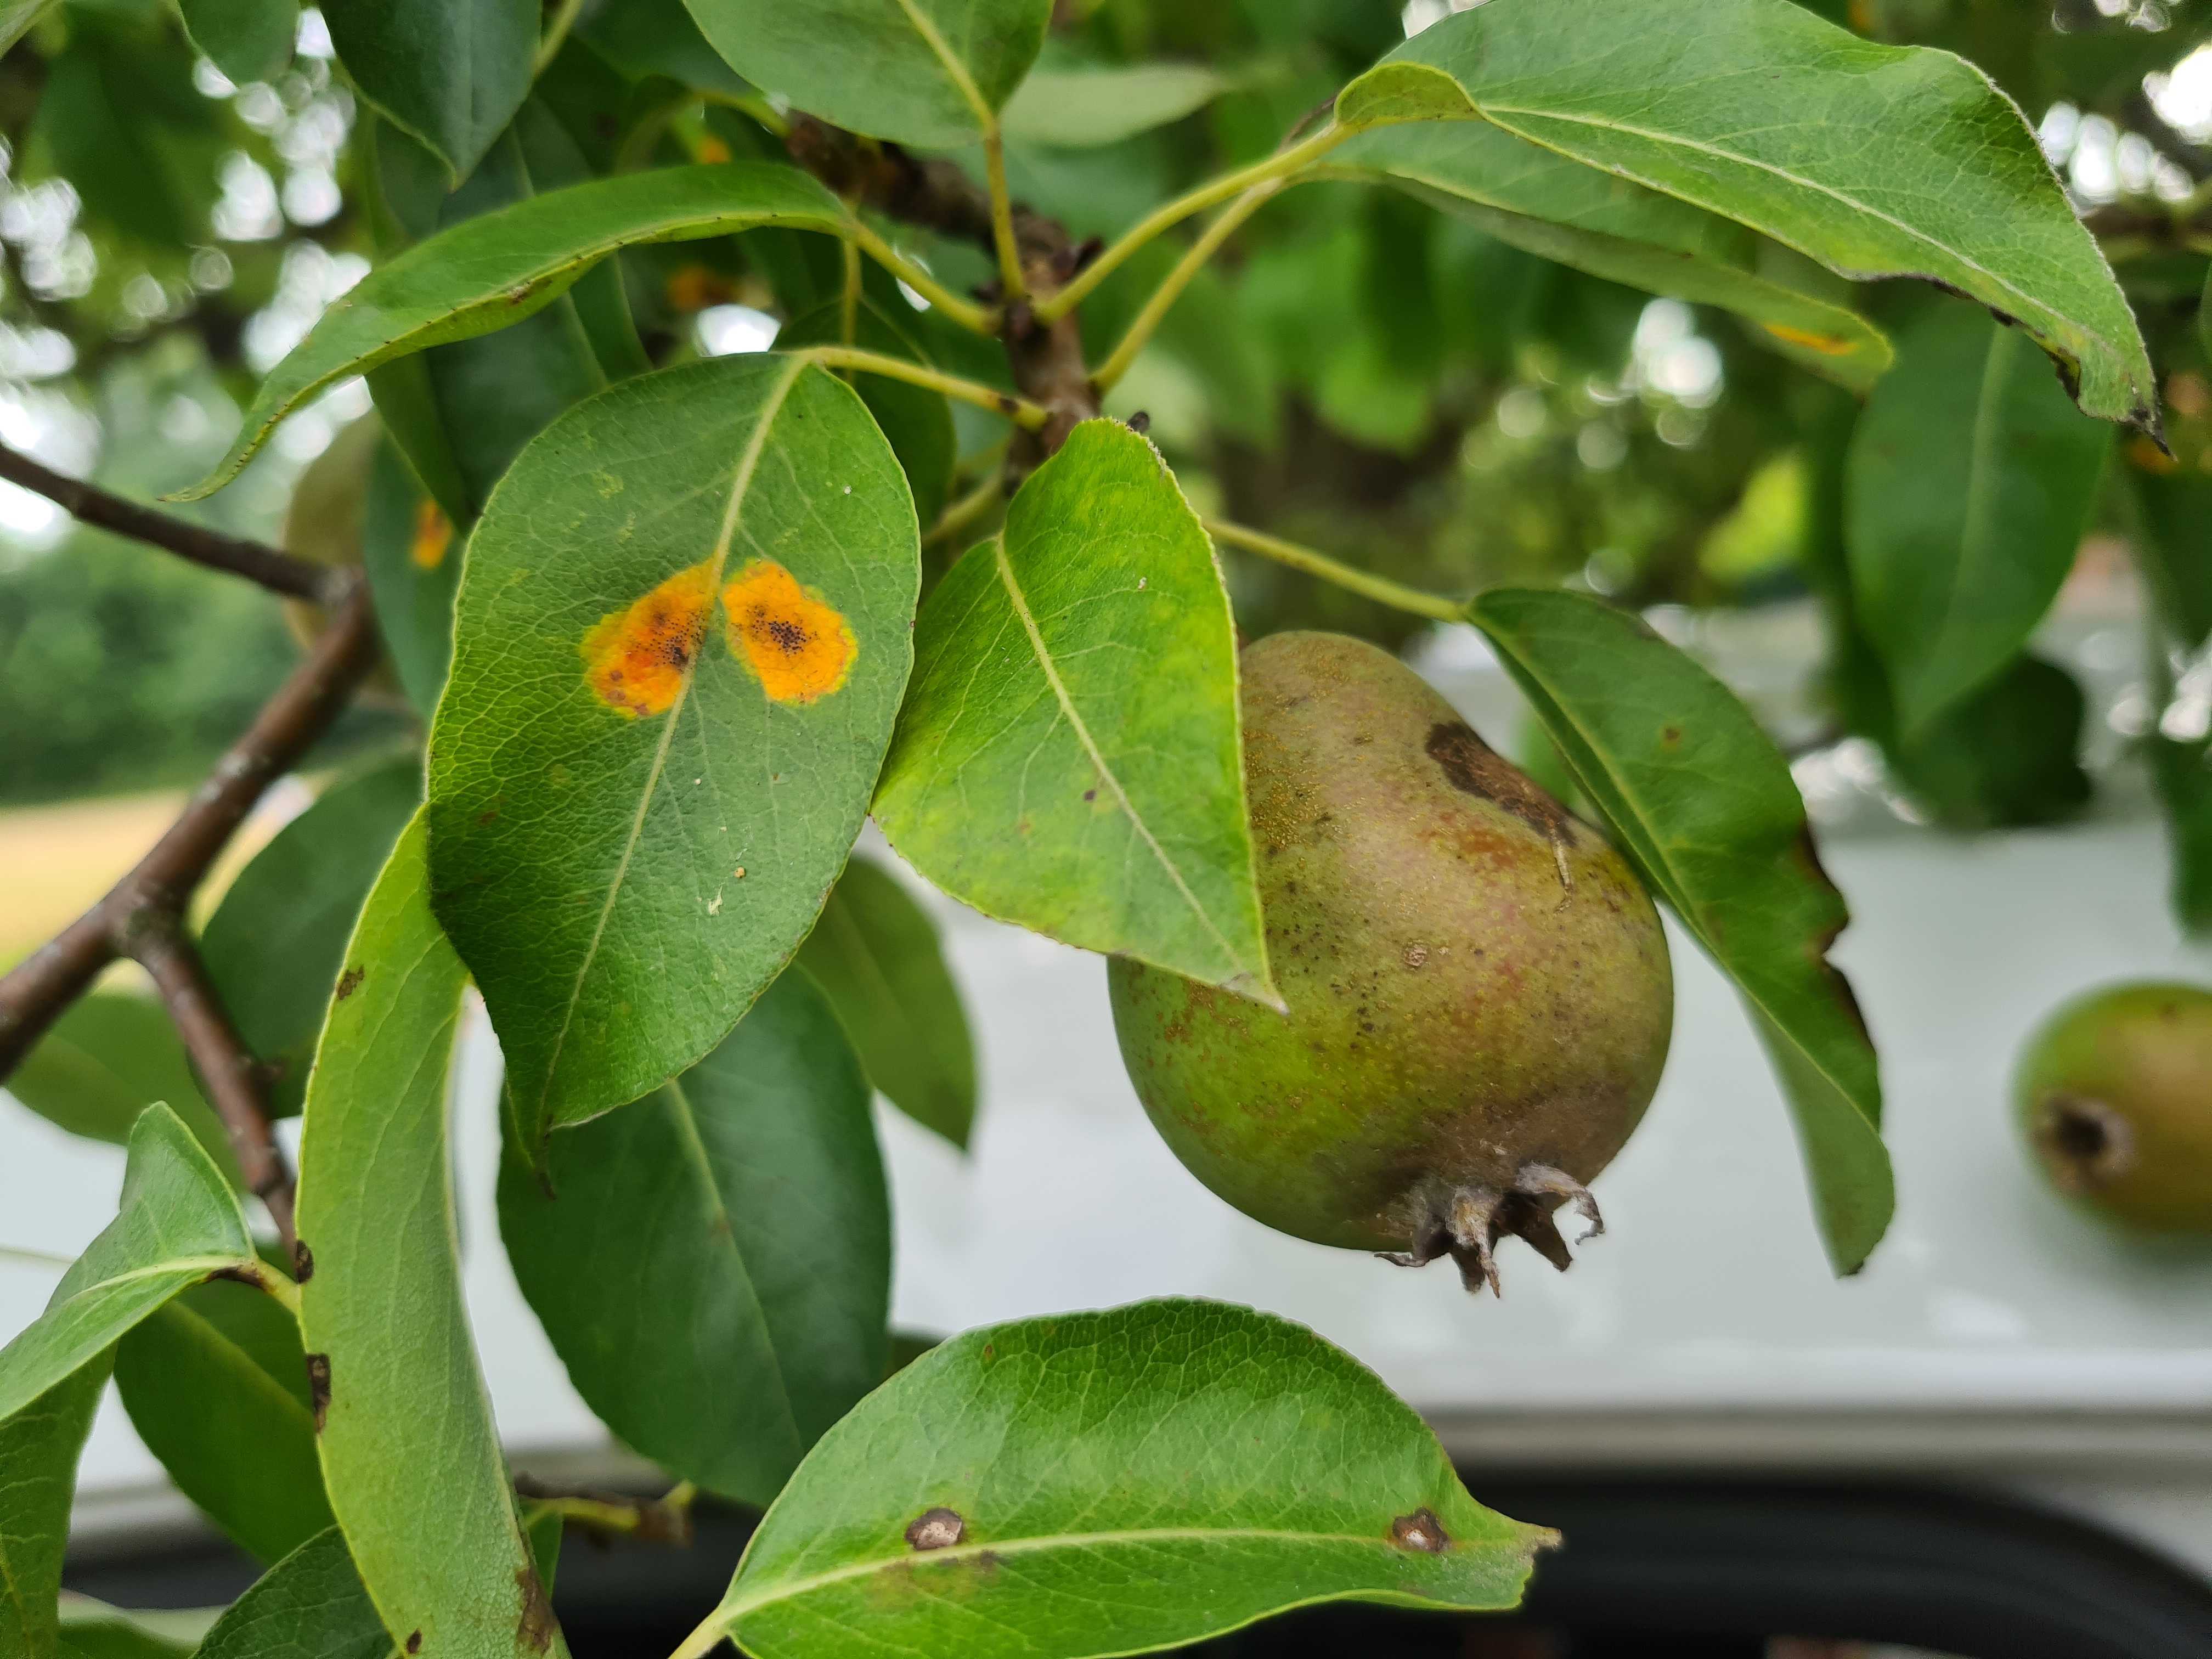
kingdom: Fungi
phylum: Basidiomycota
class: Pucciniomycetes
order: Pucciniales
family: Gymnosporangiaceae
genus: Gymnosporangium
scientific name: Gymnosporangium sabinae
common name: pæregitter-bævrerust
